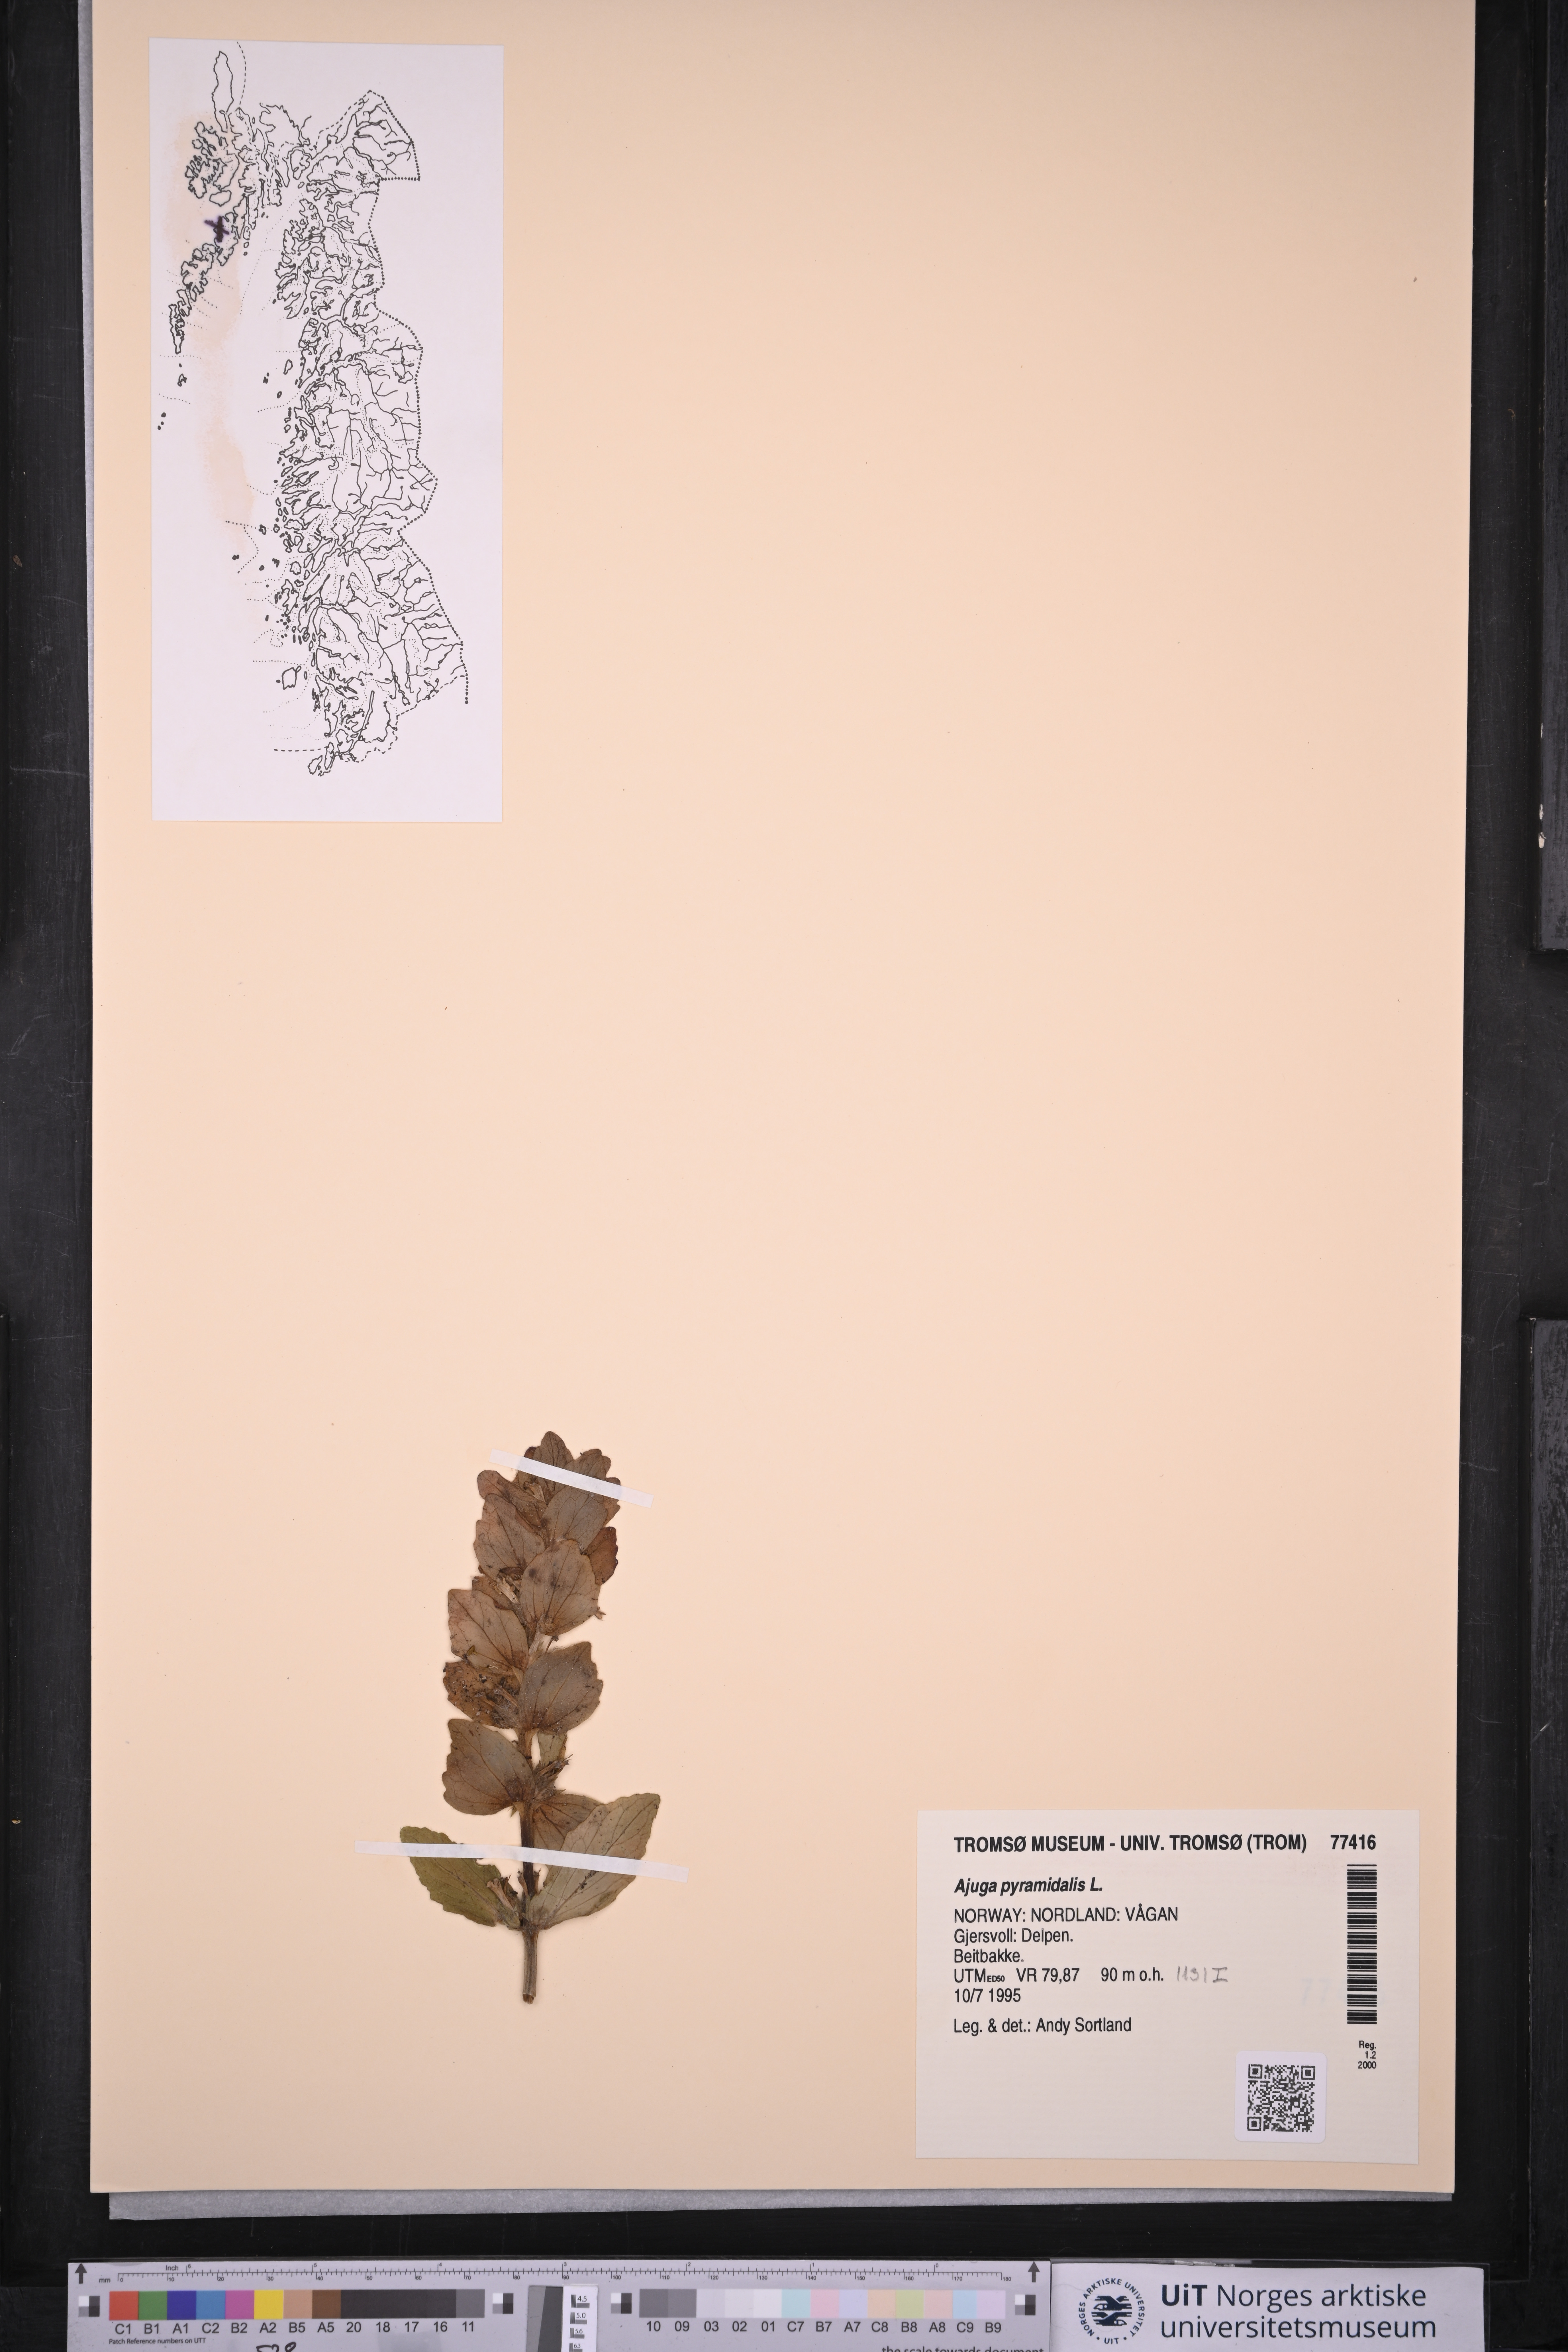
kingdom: Plantae
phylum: Tracheophyta
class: Magnoliopsida
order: Lamiales
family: Lamiaceae
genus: Ajuga
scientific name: Ajuga pyramidalis
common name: Pyramid bugle
